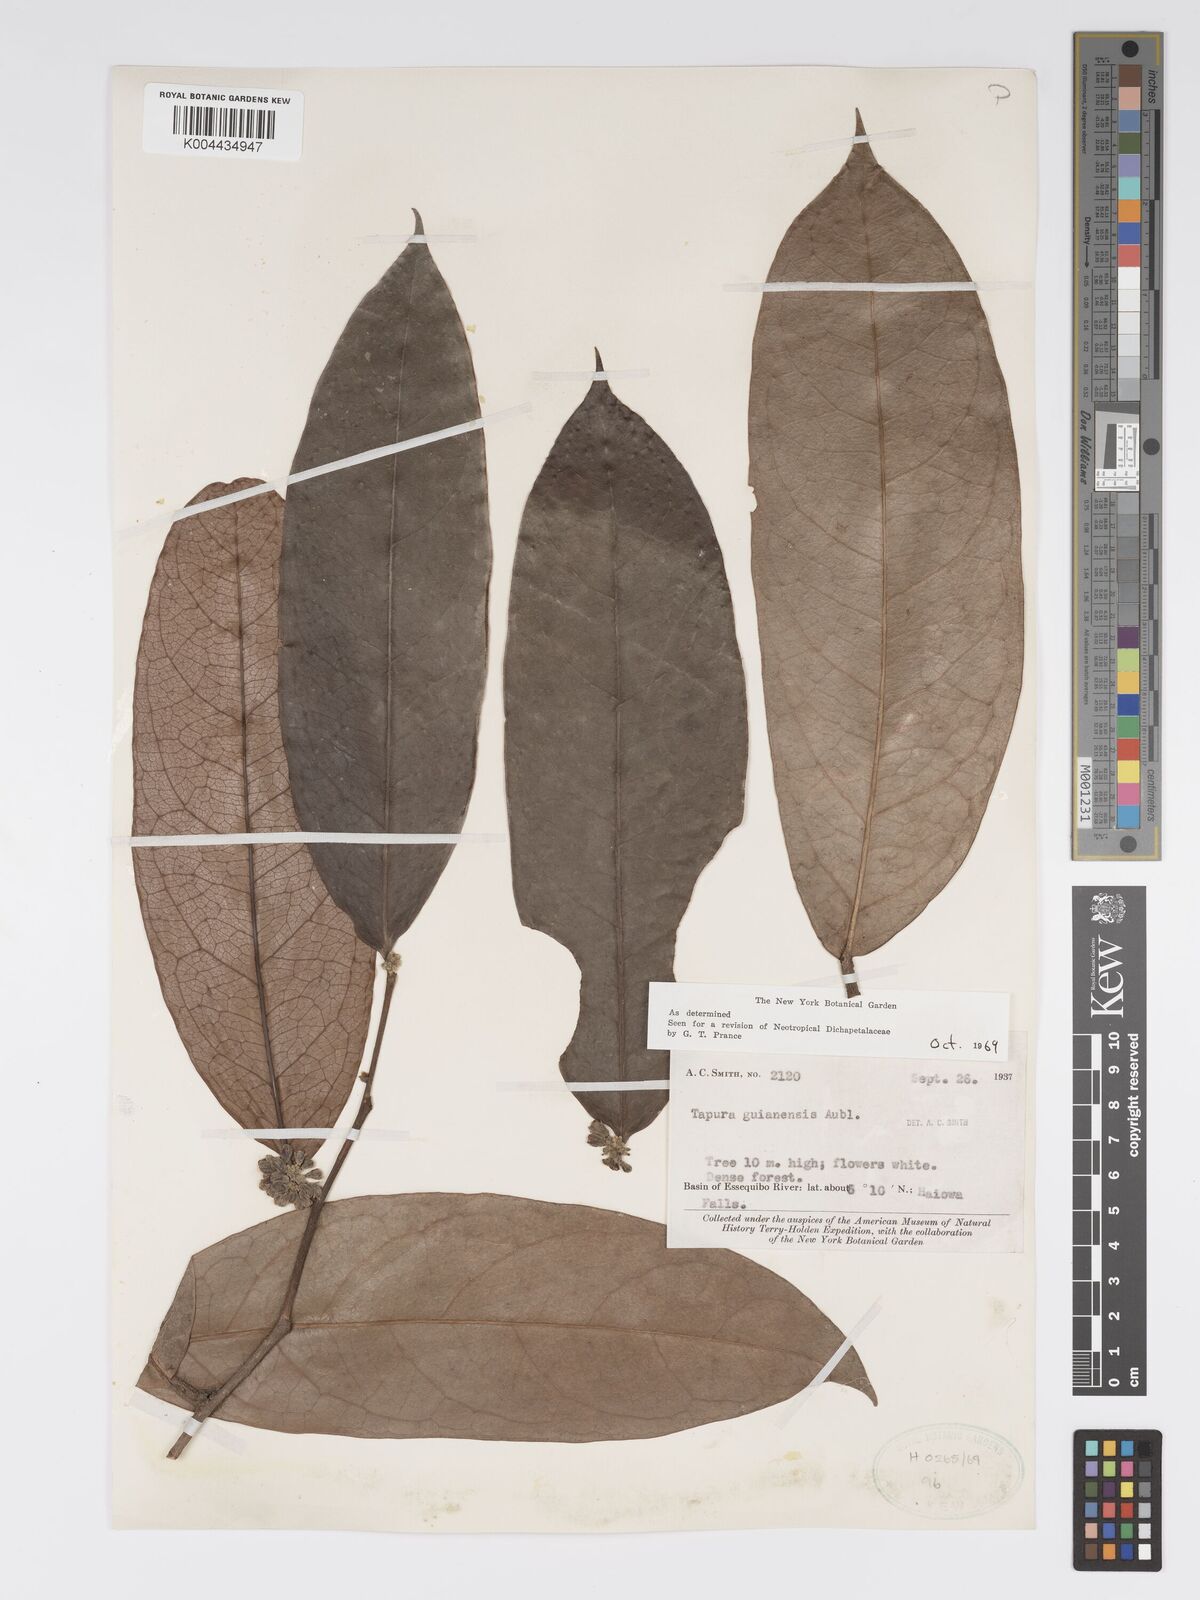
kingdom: Plantae
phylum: Tracheophyta
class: Magnoliopsida
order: Malpighiales
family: Dichapetalaceae
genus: Tapura
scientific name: Tapura guianensis
